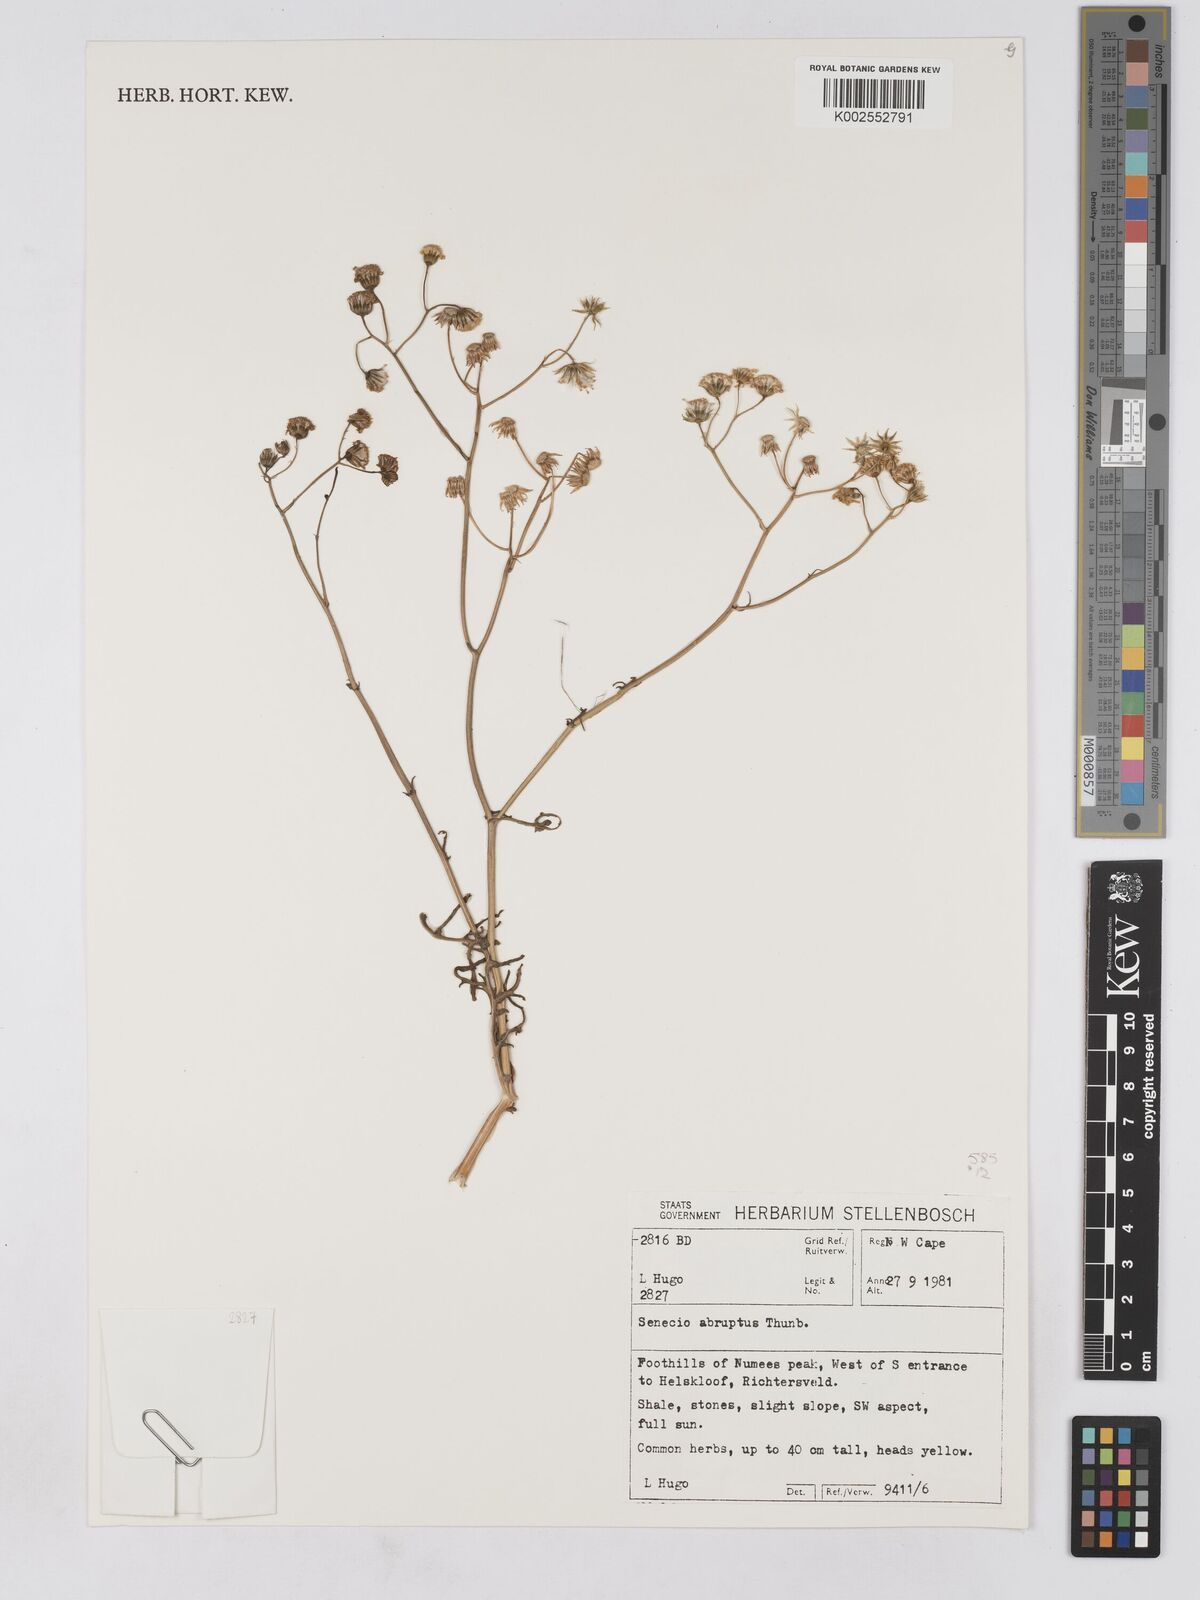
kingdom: Plantae
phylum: Tracheophyta
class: Magnoliopsida
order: Asterales
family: Asteraceae
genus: Senecio
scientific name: Senecio abruptus
